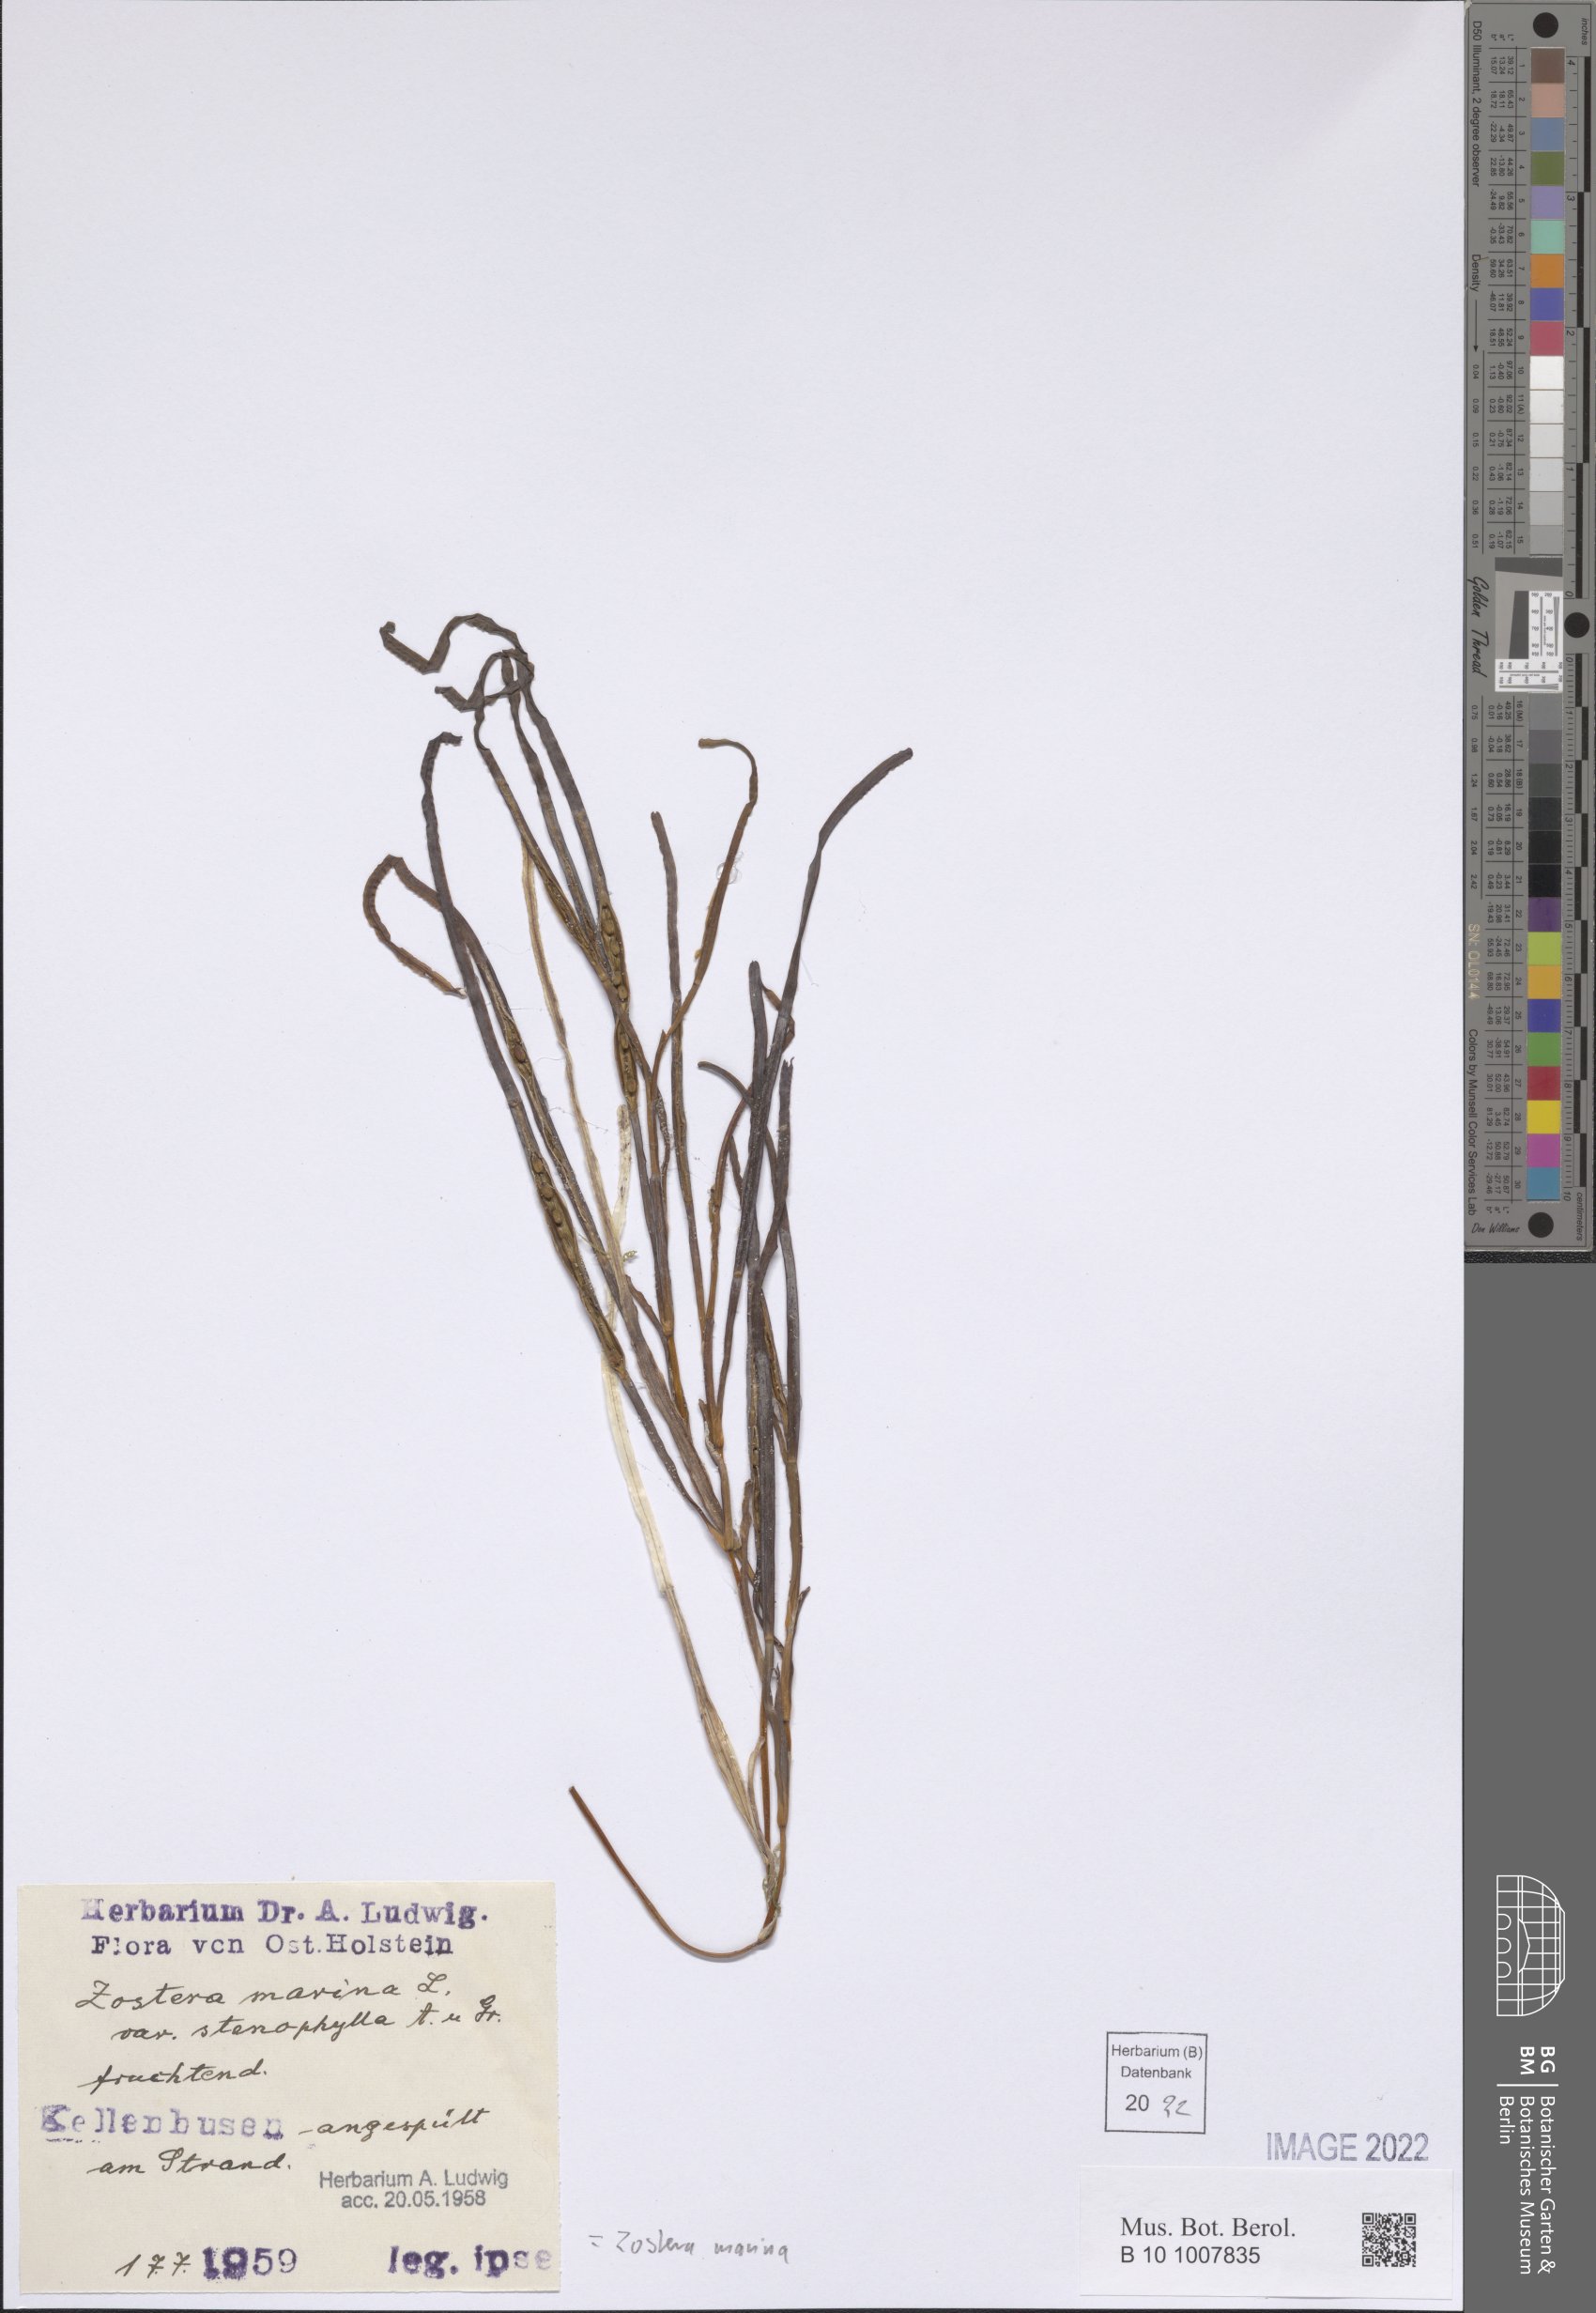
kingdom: Plantae
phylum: Tracheophyta
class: Liliopsida
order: Alismatales
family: Zosteraceae
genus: Zostera
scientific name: Zostera marina
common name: Eelgrass
